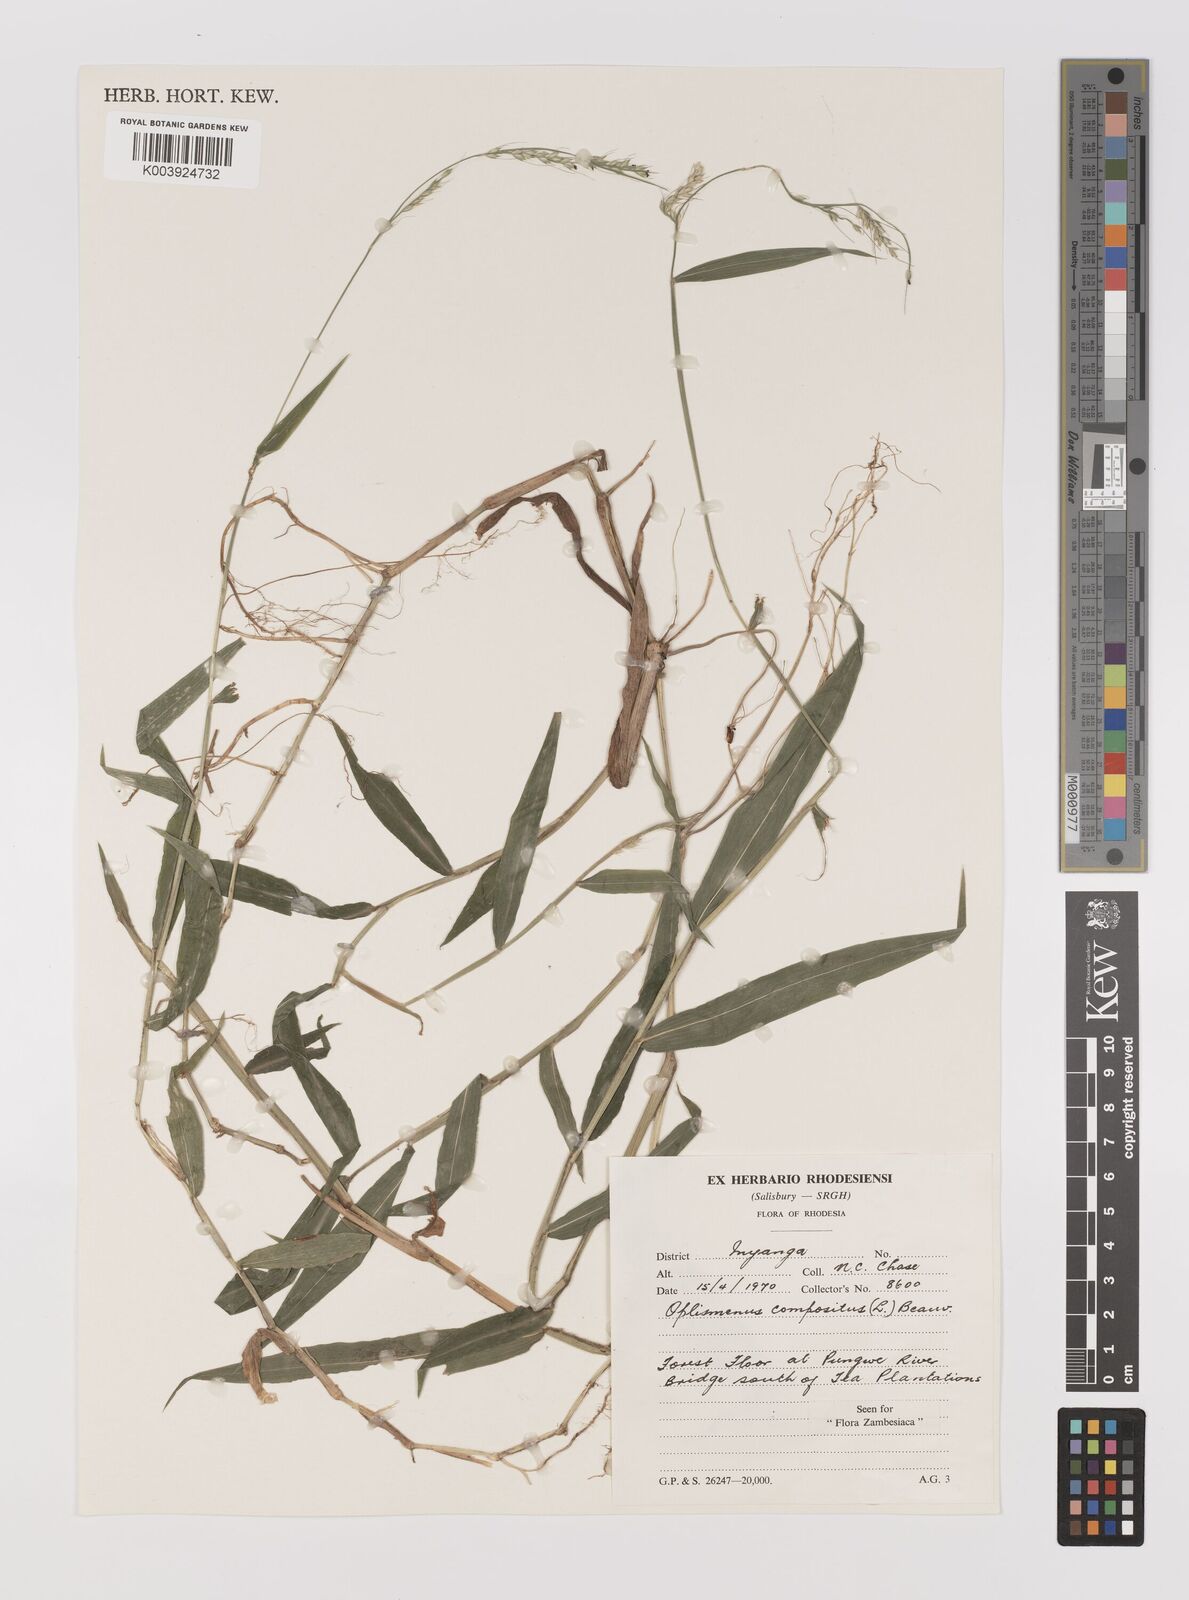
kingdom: Plantae
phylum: Tracheophyta
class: Liliopsida
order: Poales
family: Poaceae
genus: Oplismenus
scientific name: Oplismenus compositus
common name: Running mountain grass
